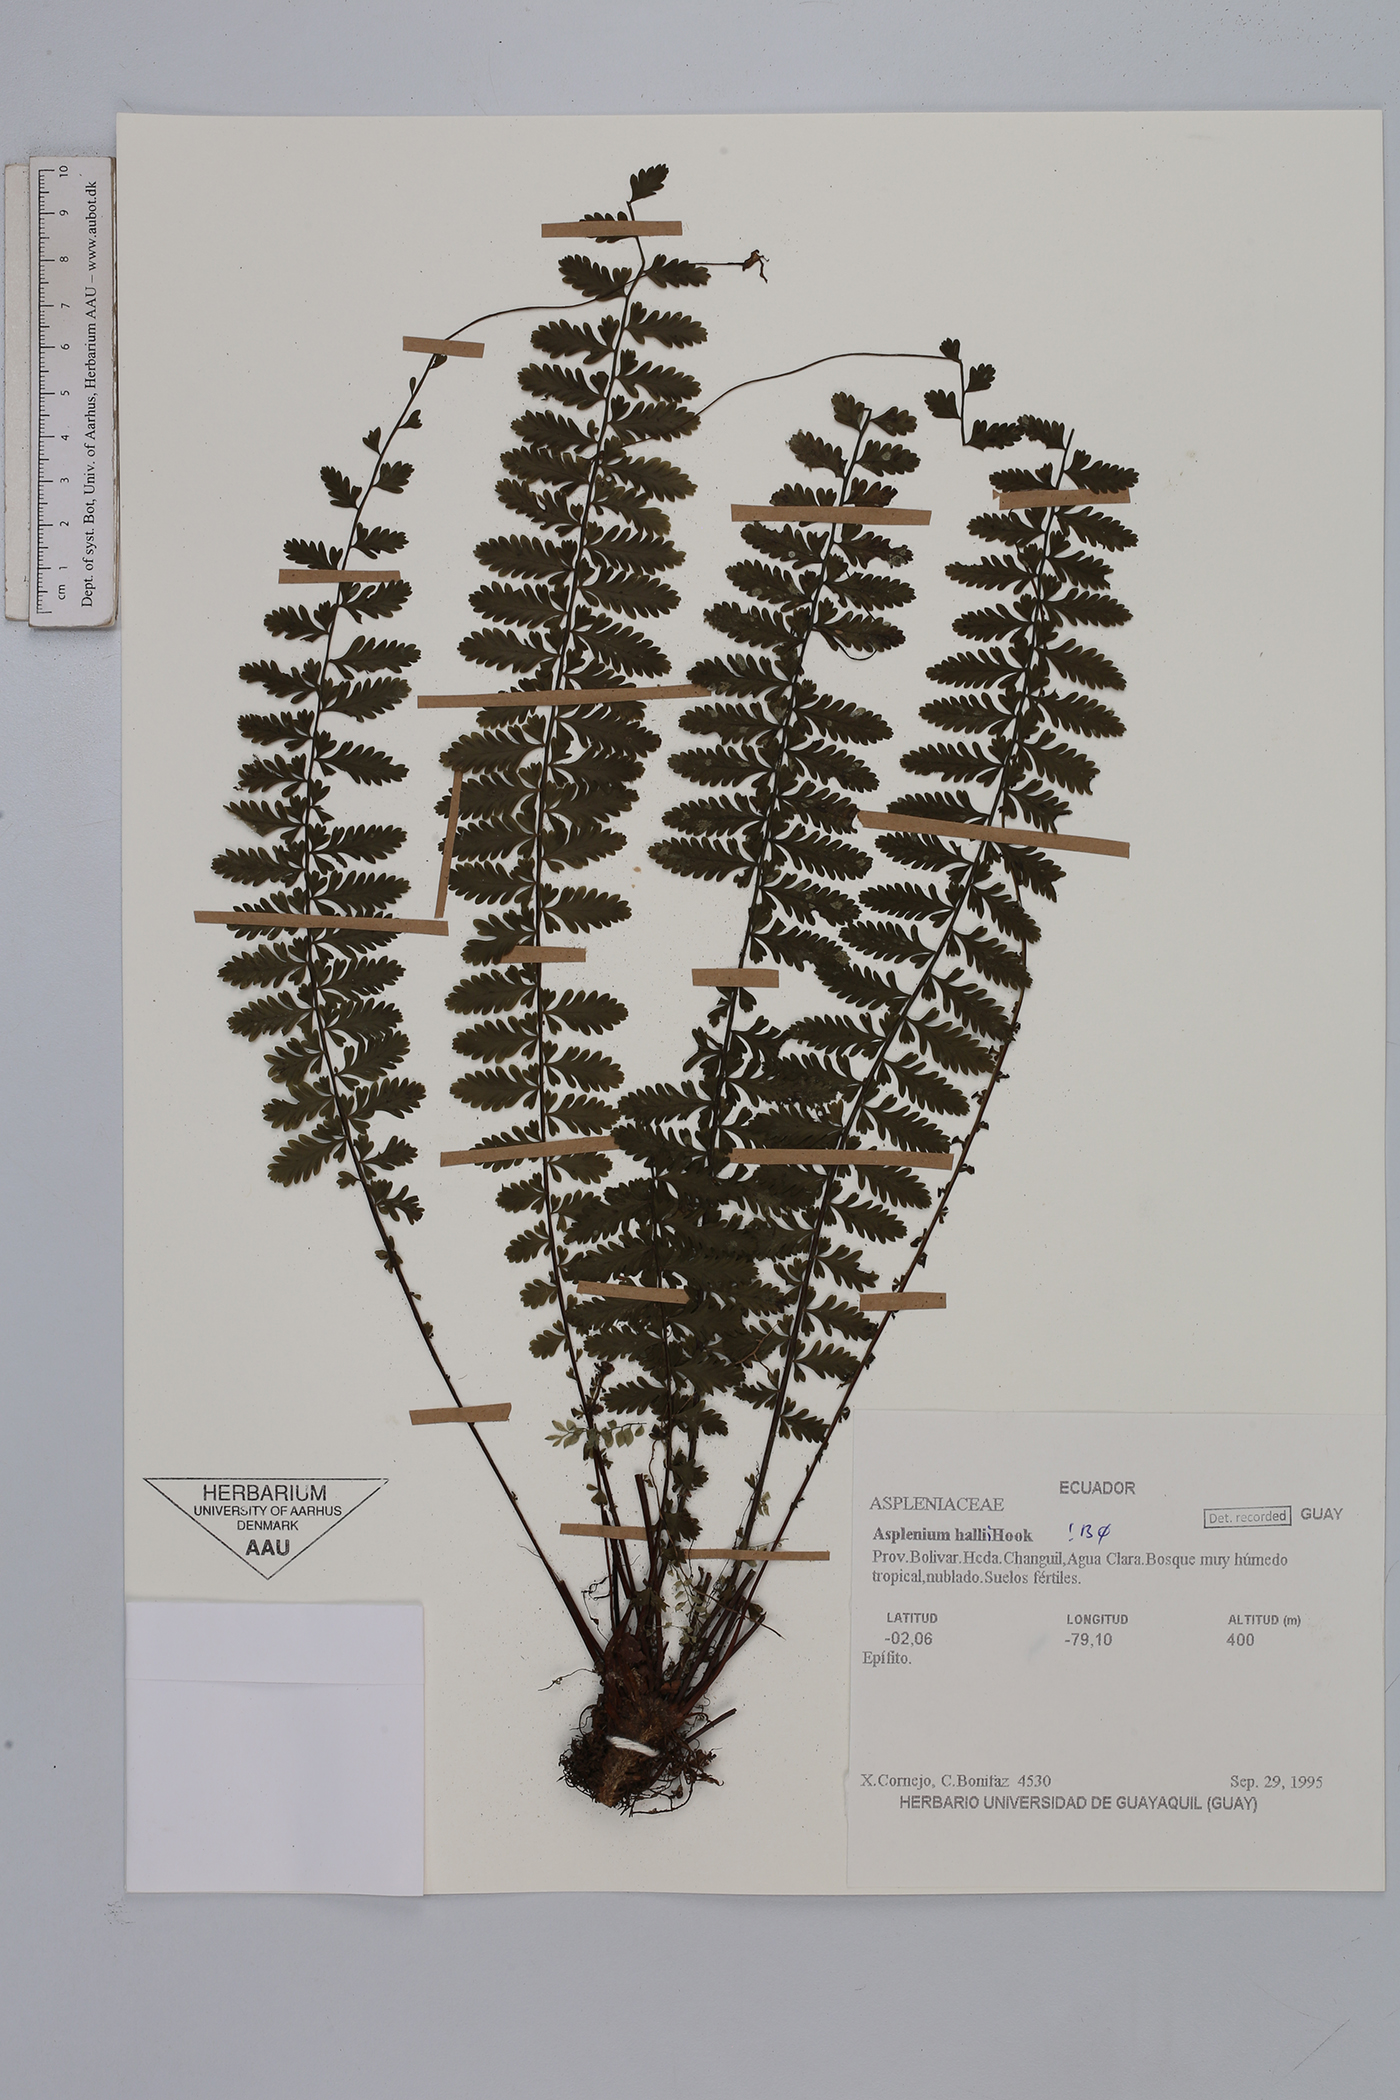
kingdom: Plantae
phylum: Tracheophyta
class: Polypodiopsida
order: Polypodiales
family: Aspleniaceae
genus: Asplenium
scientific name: Asplenium hallii
